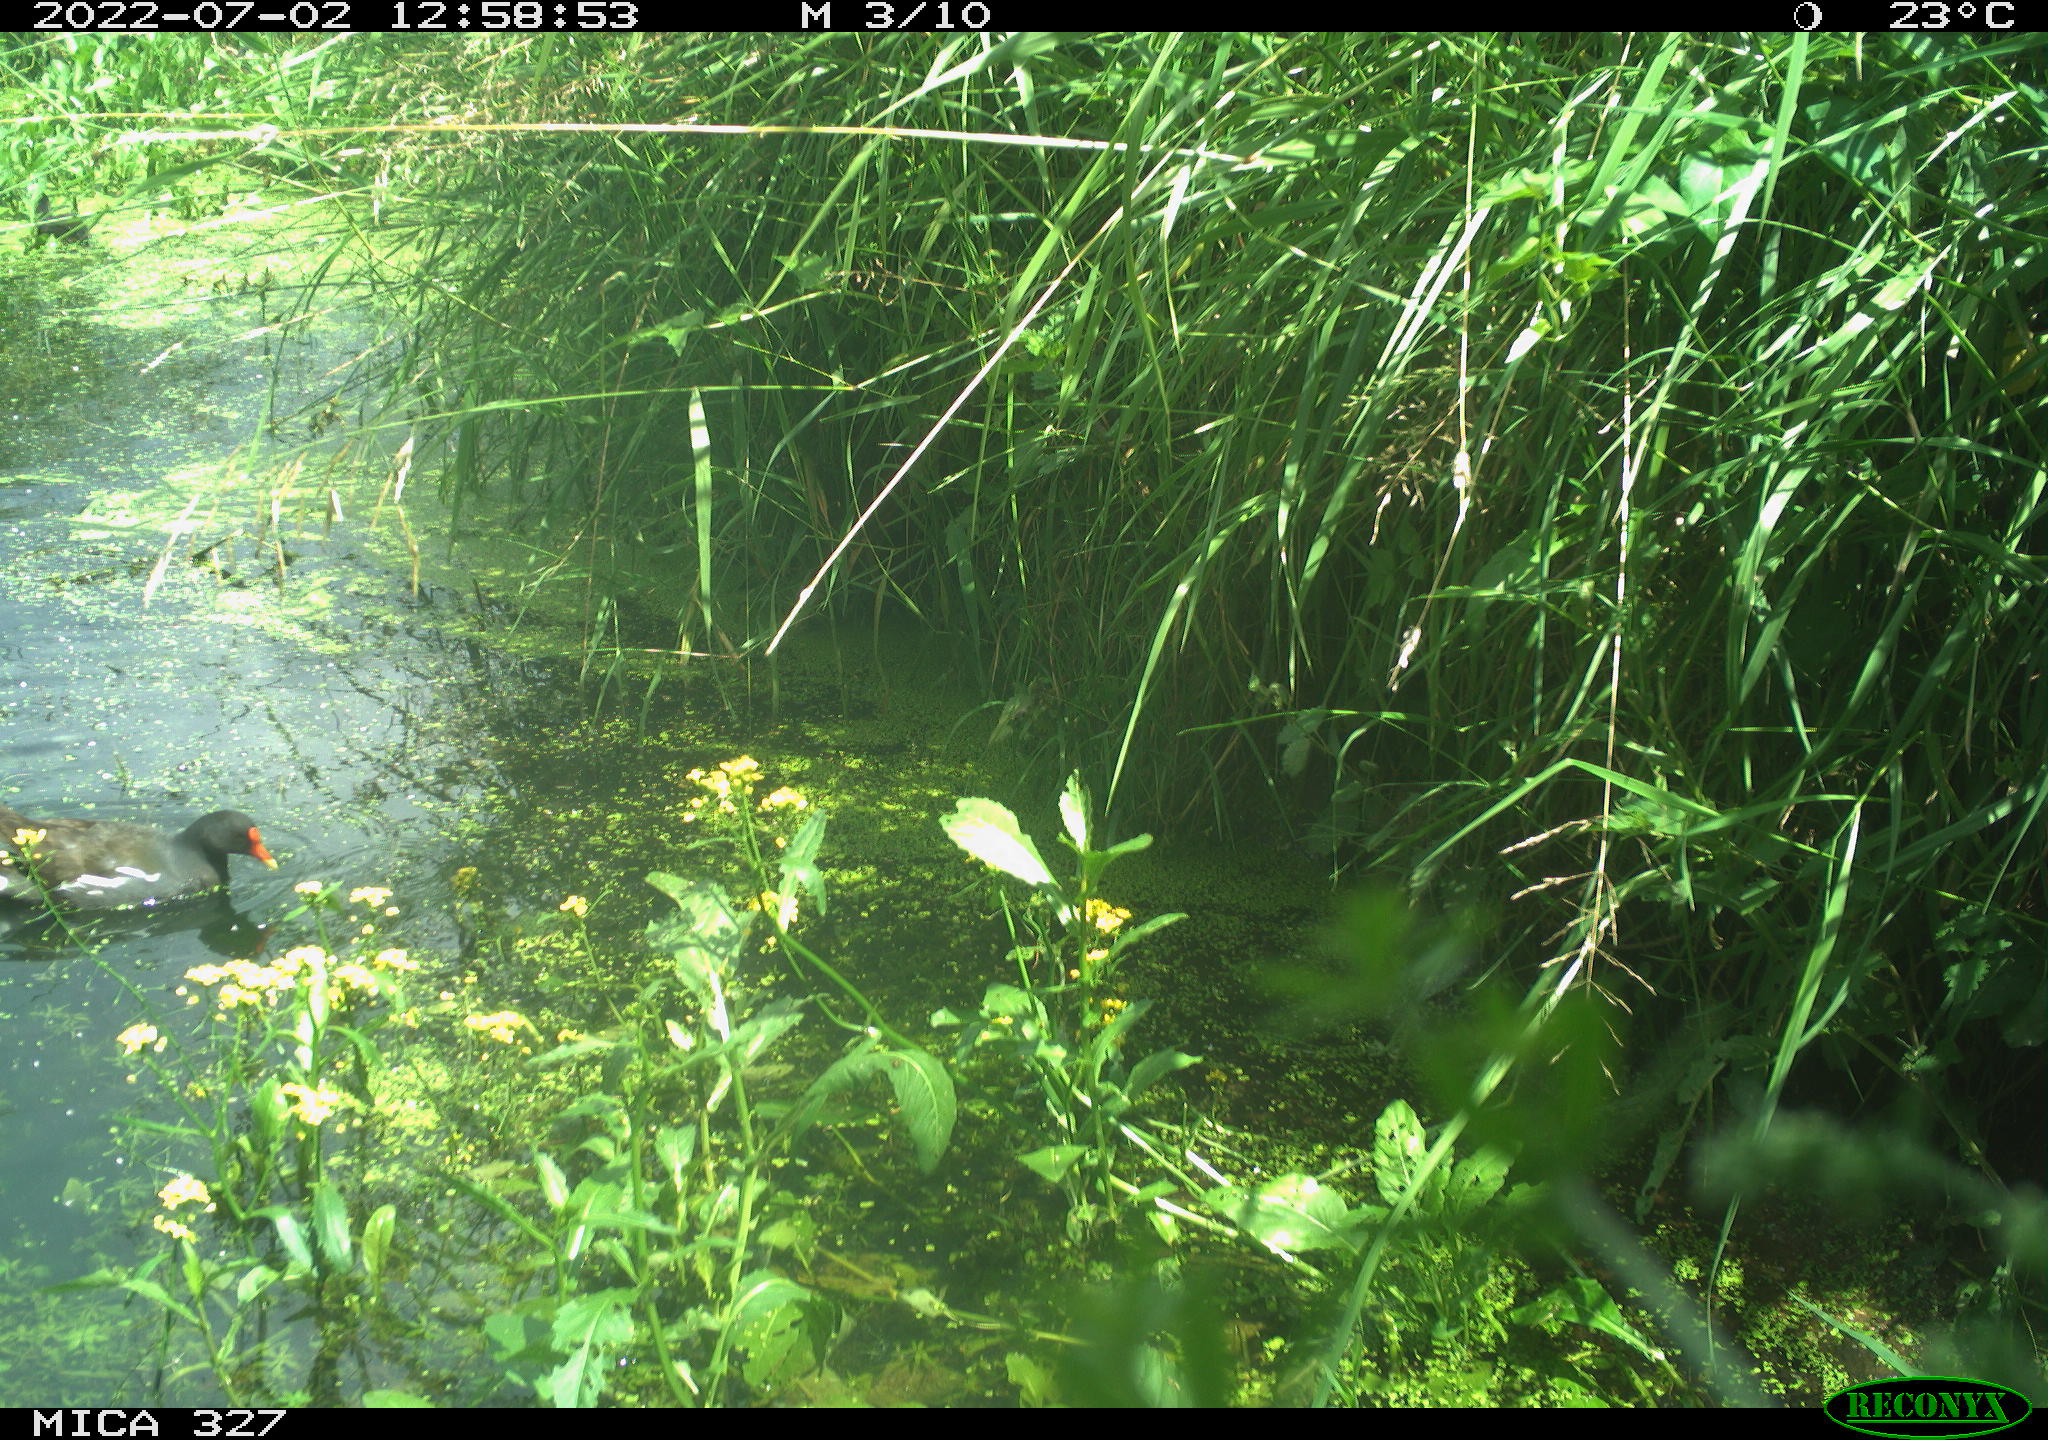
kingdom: Animalia
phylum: Chordata
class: Aves
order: Gruiformes
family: Rallidae
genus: Gallinula
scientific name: Gallinula chloropus
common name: Common moorhen
